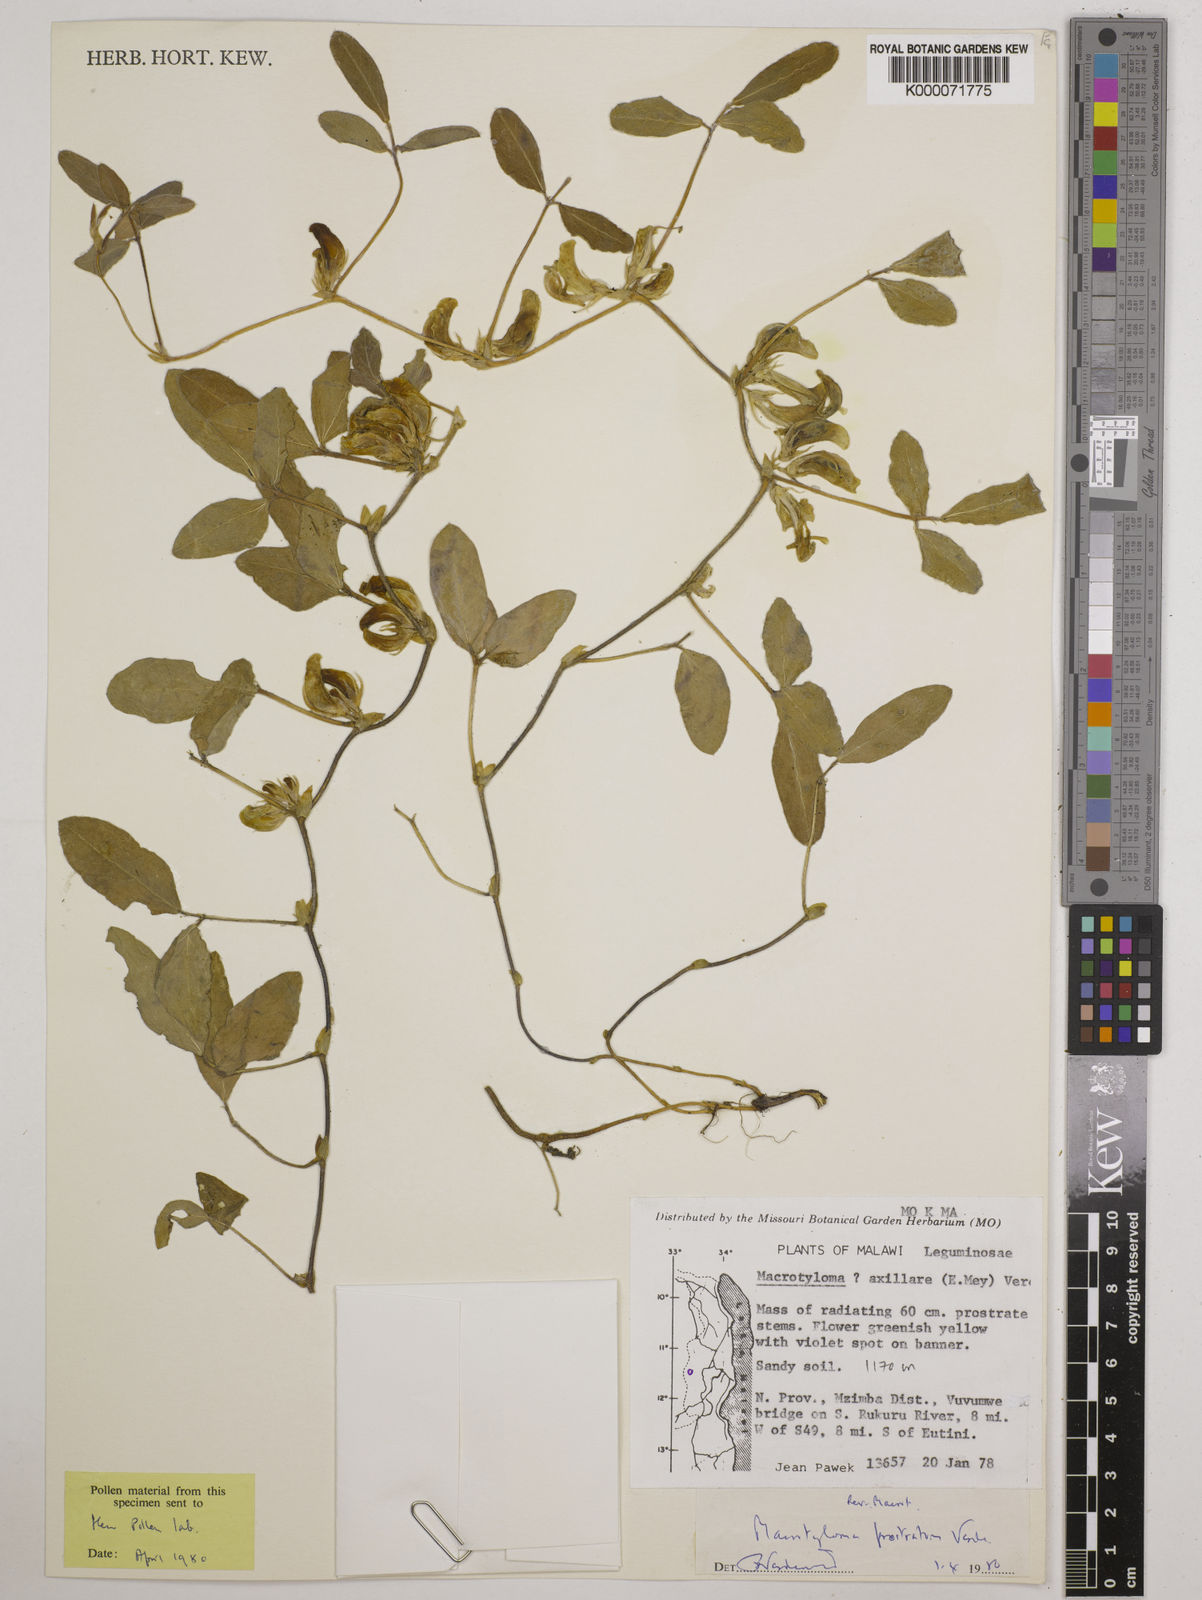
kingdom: Plantae
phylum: Tracheophyta
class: Magnoliopsida
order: Fabales
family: Fabaceae
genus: Macrotyloma
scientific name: Macrotyloma prostratum
